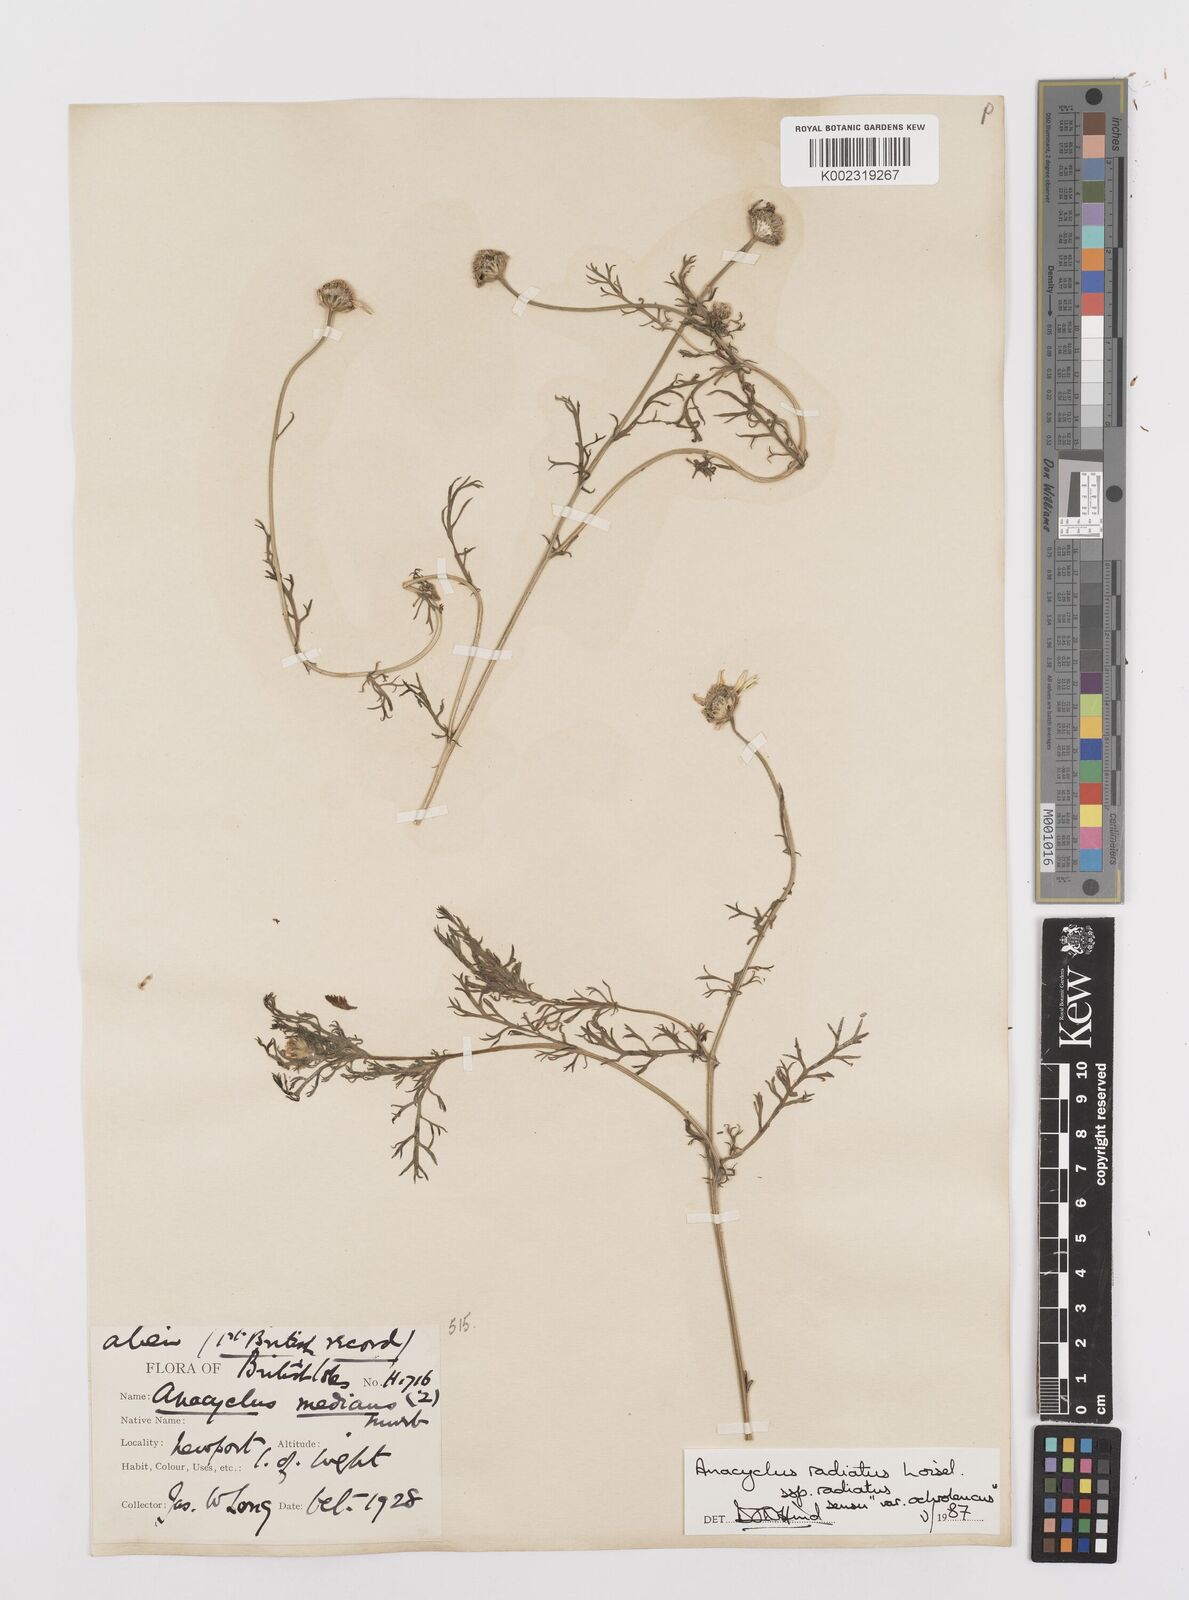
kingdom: Plantae
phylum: Tracheophyta
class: Magnoliopsida
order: Asterales
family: Asteraceae
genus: Anacyclus
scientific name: Anacyclus radiatus
